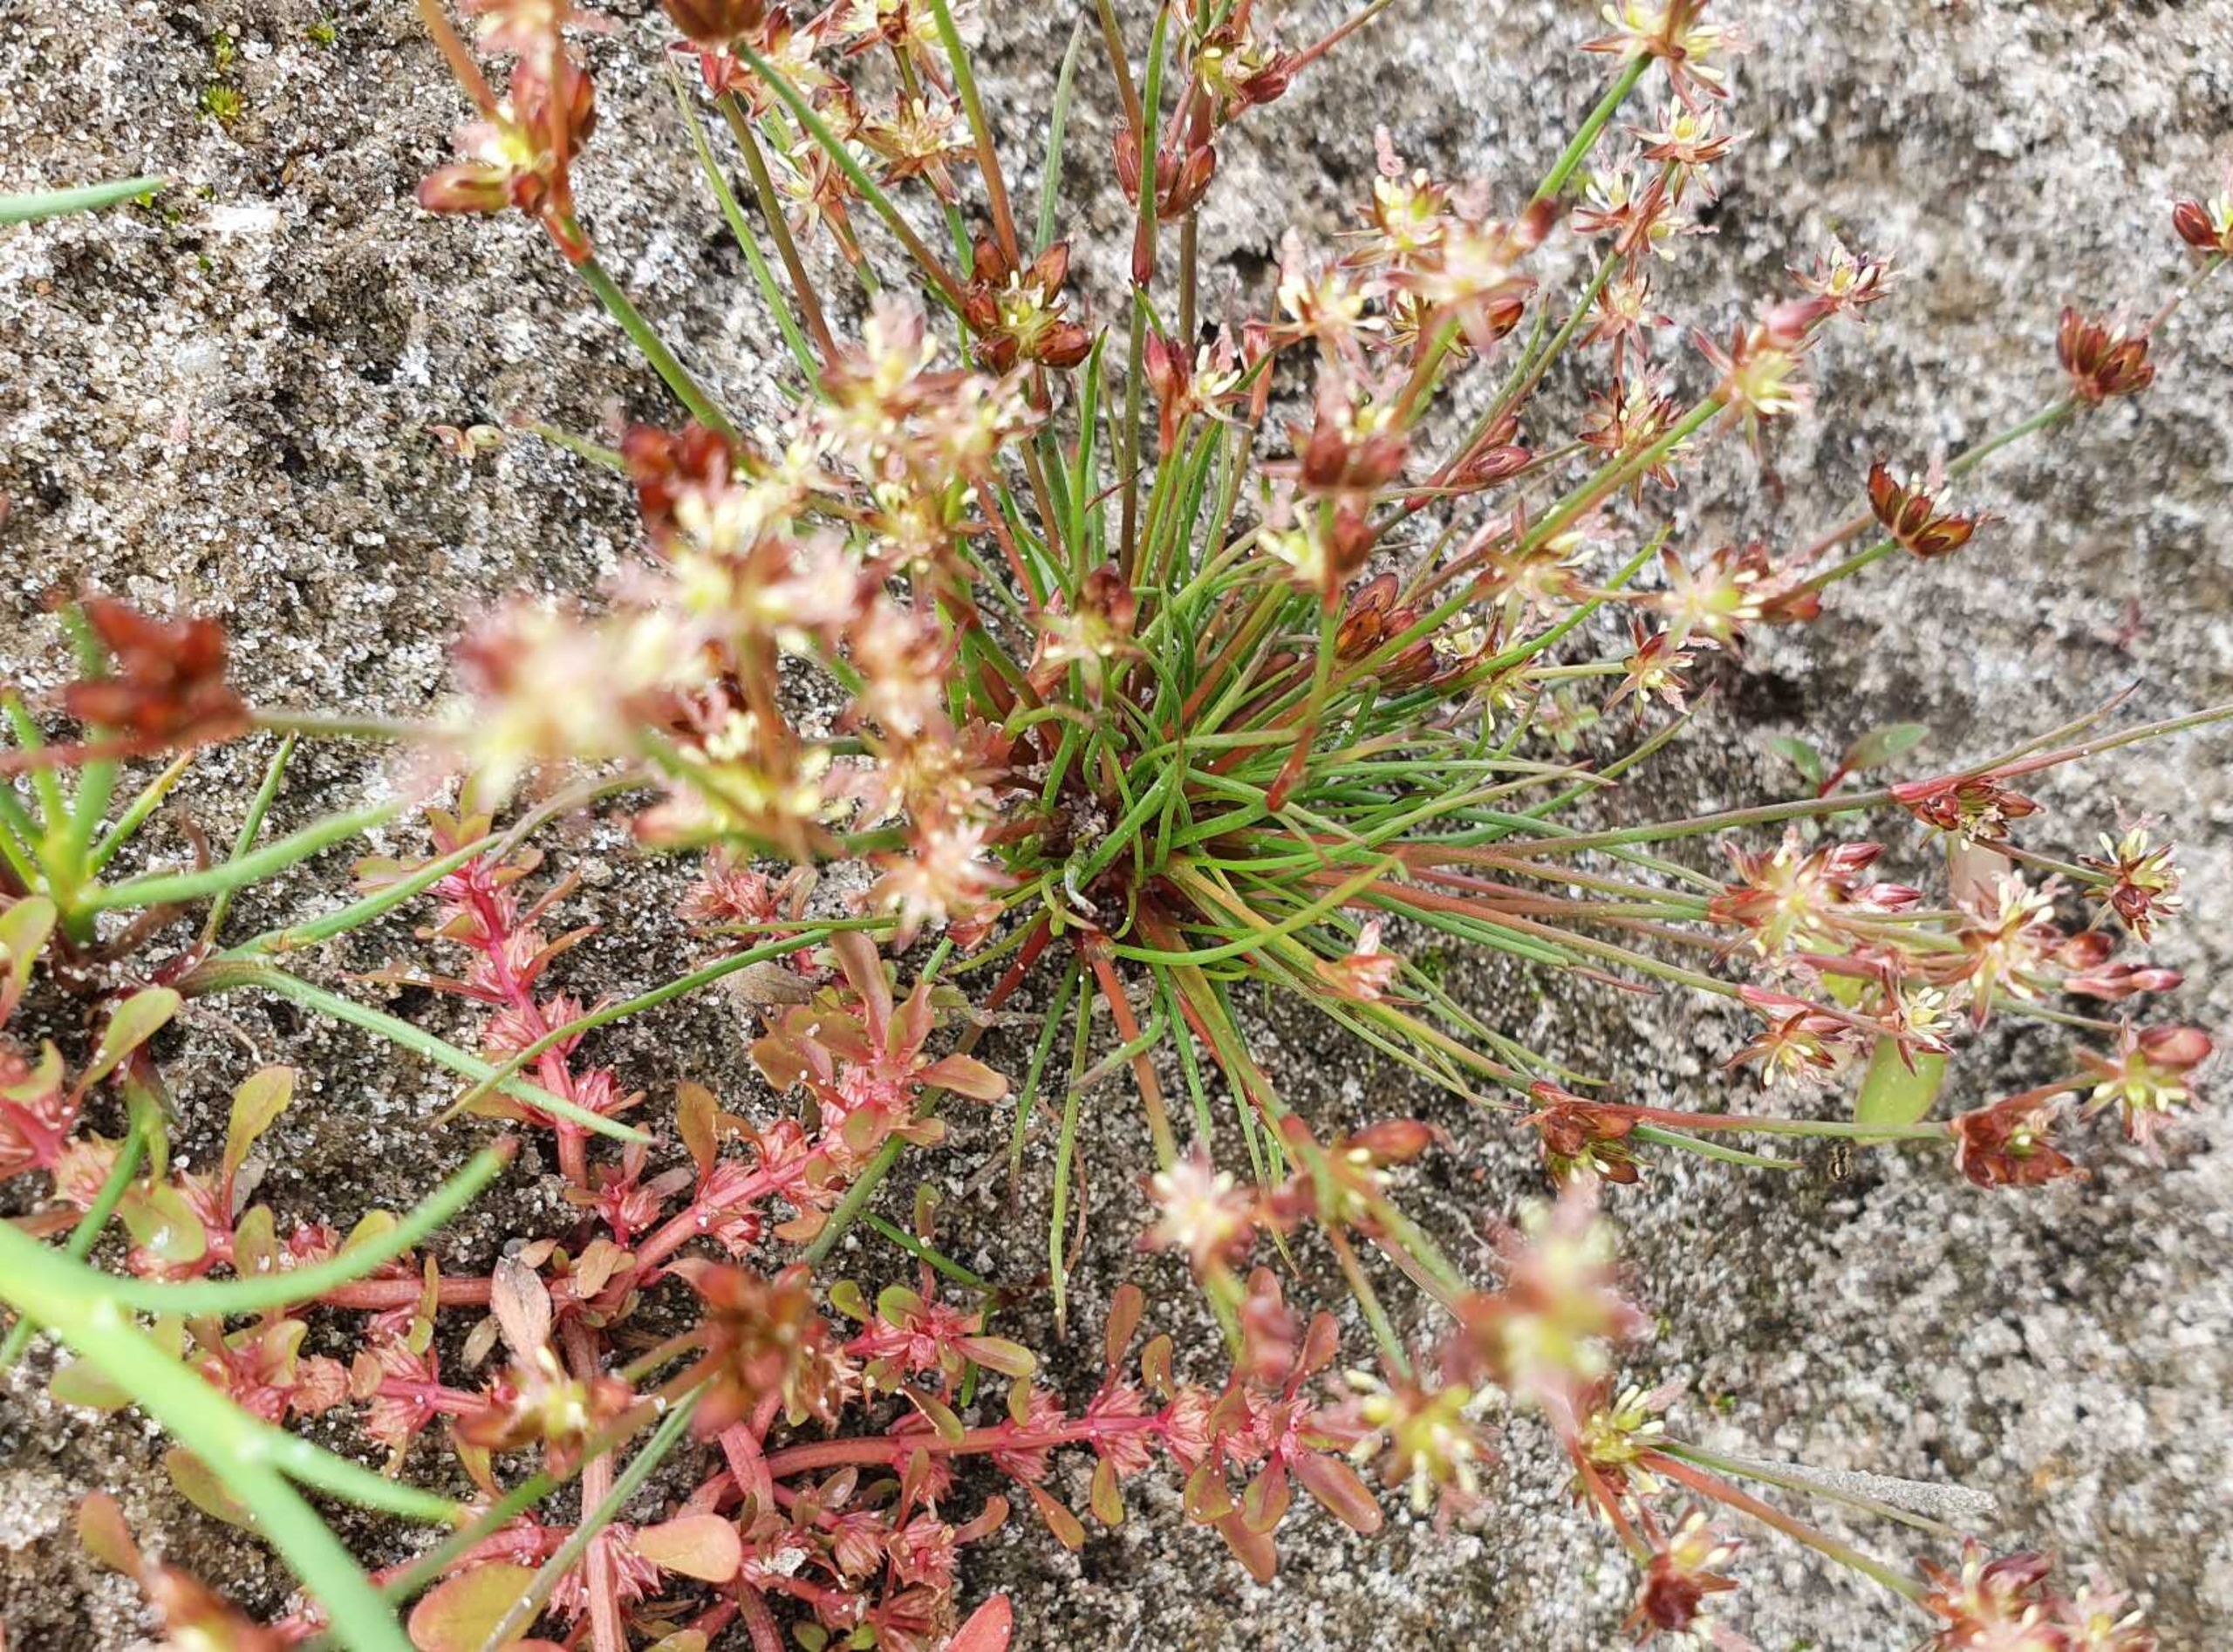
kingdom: Plantae
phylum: Tracheophyta
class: Liliopsida
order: Poales
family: Juncaceae
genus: Juncus
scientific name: Juncus bulbosus
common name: Liden siv
